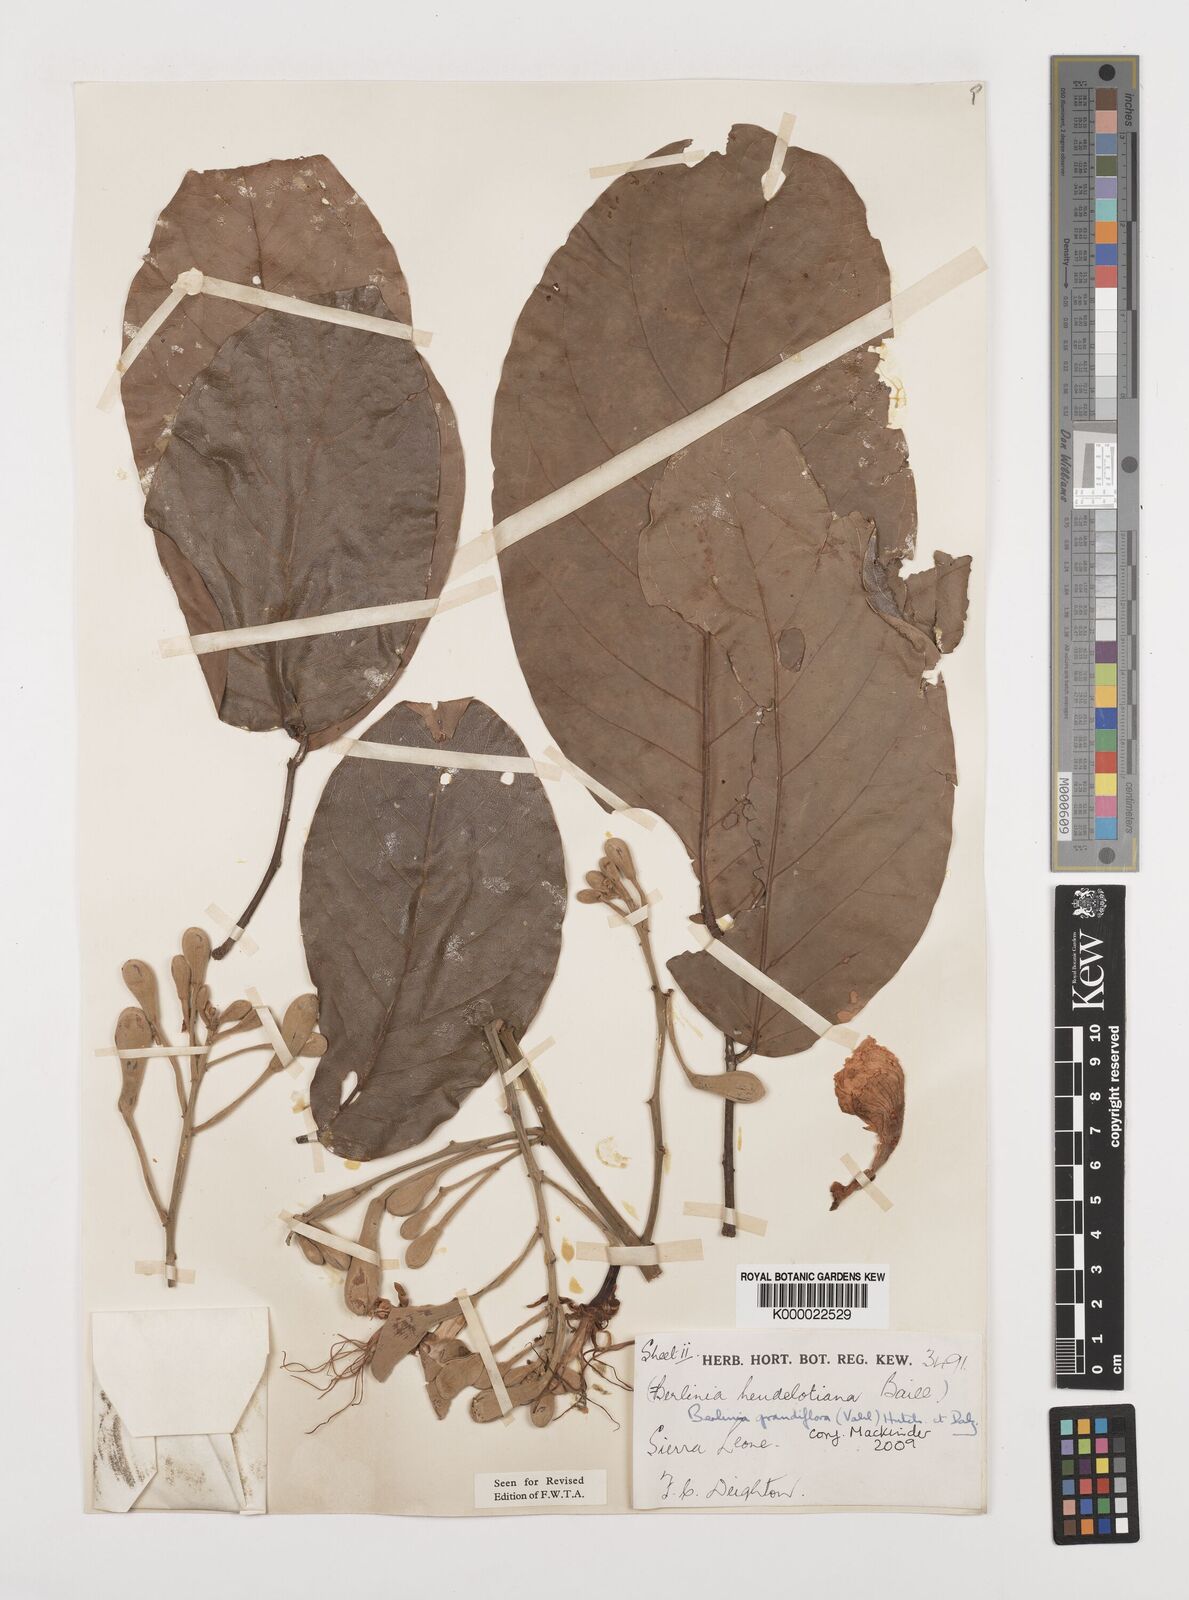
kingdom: Plantae
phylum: Tracheophyta
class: Magnoliopsida
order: Fabales
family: Fabaceae
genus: Berlinia
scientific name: Berlinia grandiflora
